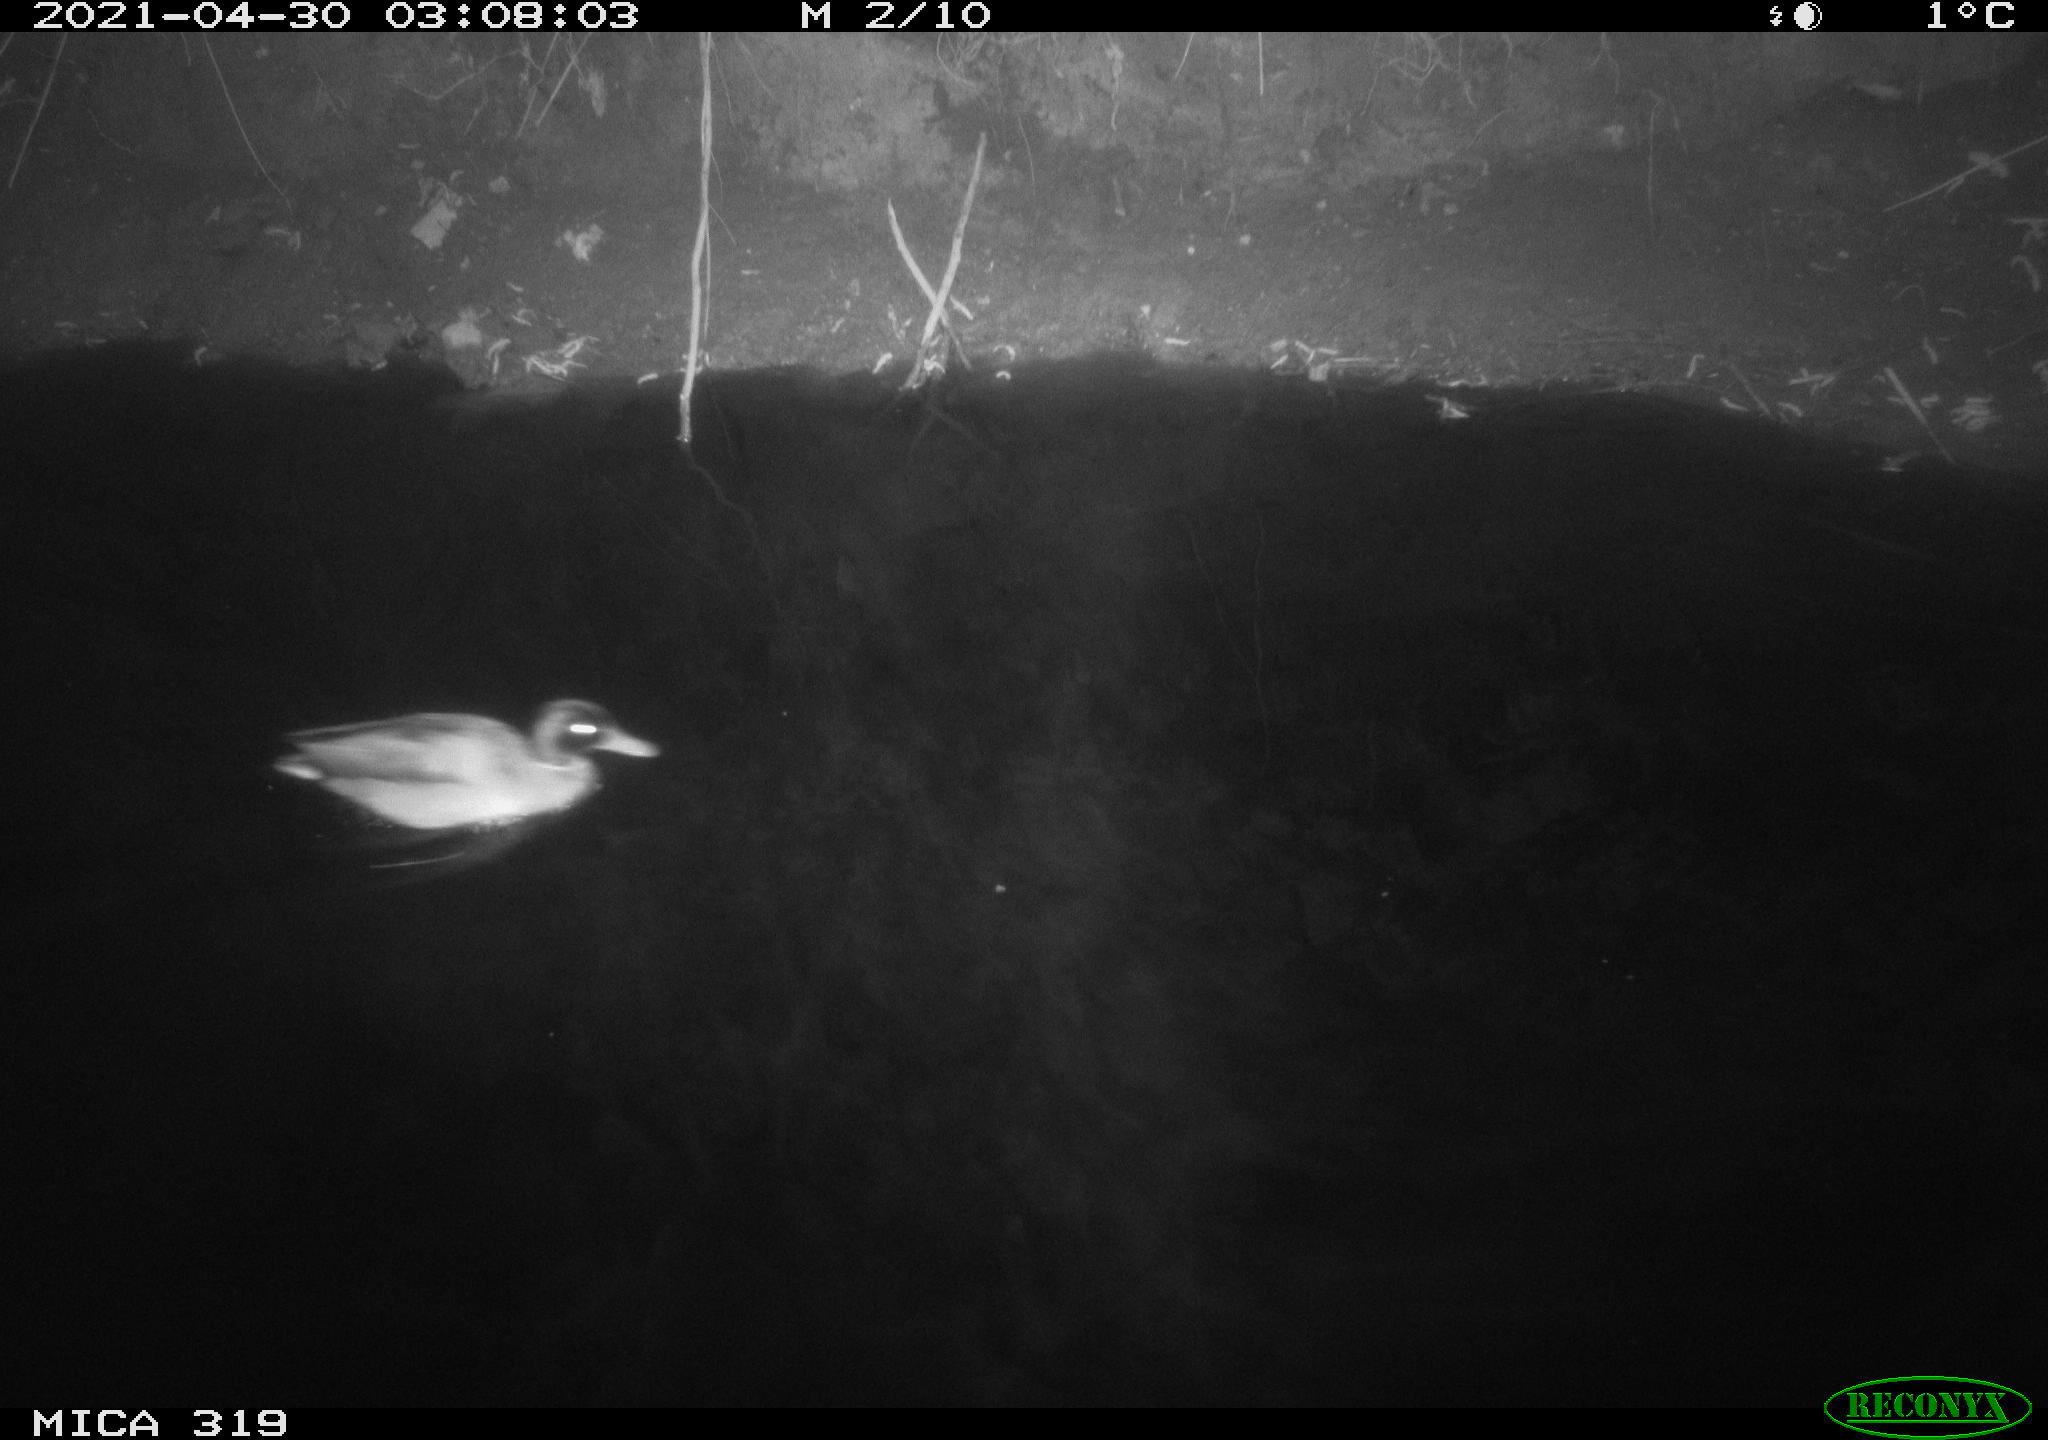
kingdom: Animalia
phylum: Chordata
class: Aves
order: Anseriformes
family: Anatidae
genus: Anas
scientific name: Anas platyrhynchos
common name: Mallard
